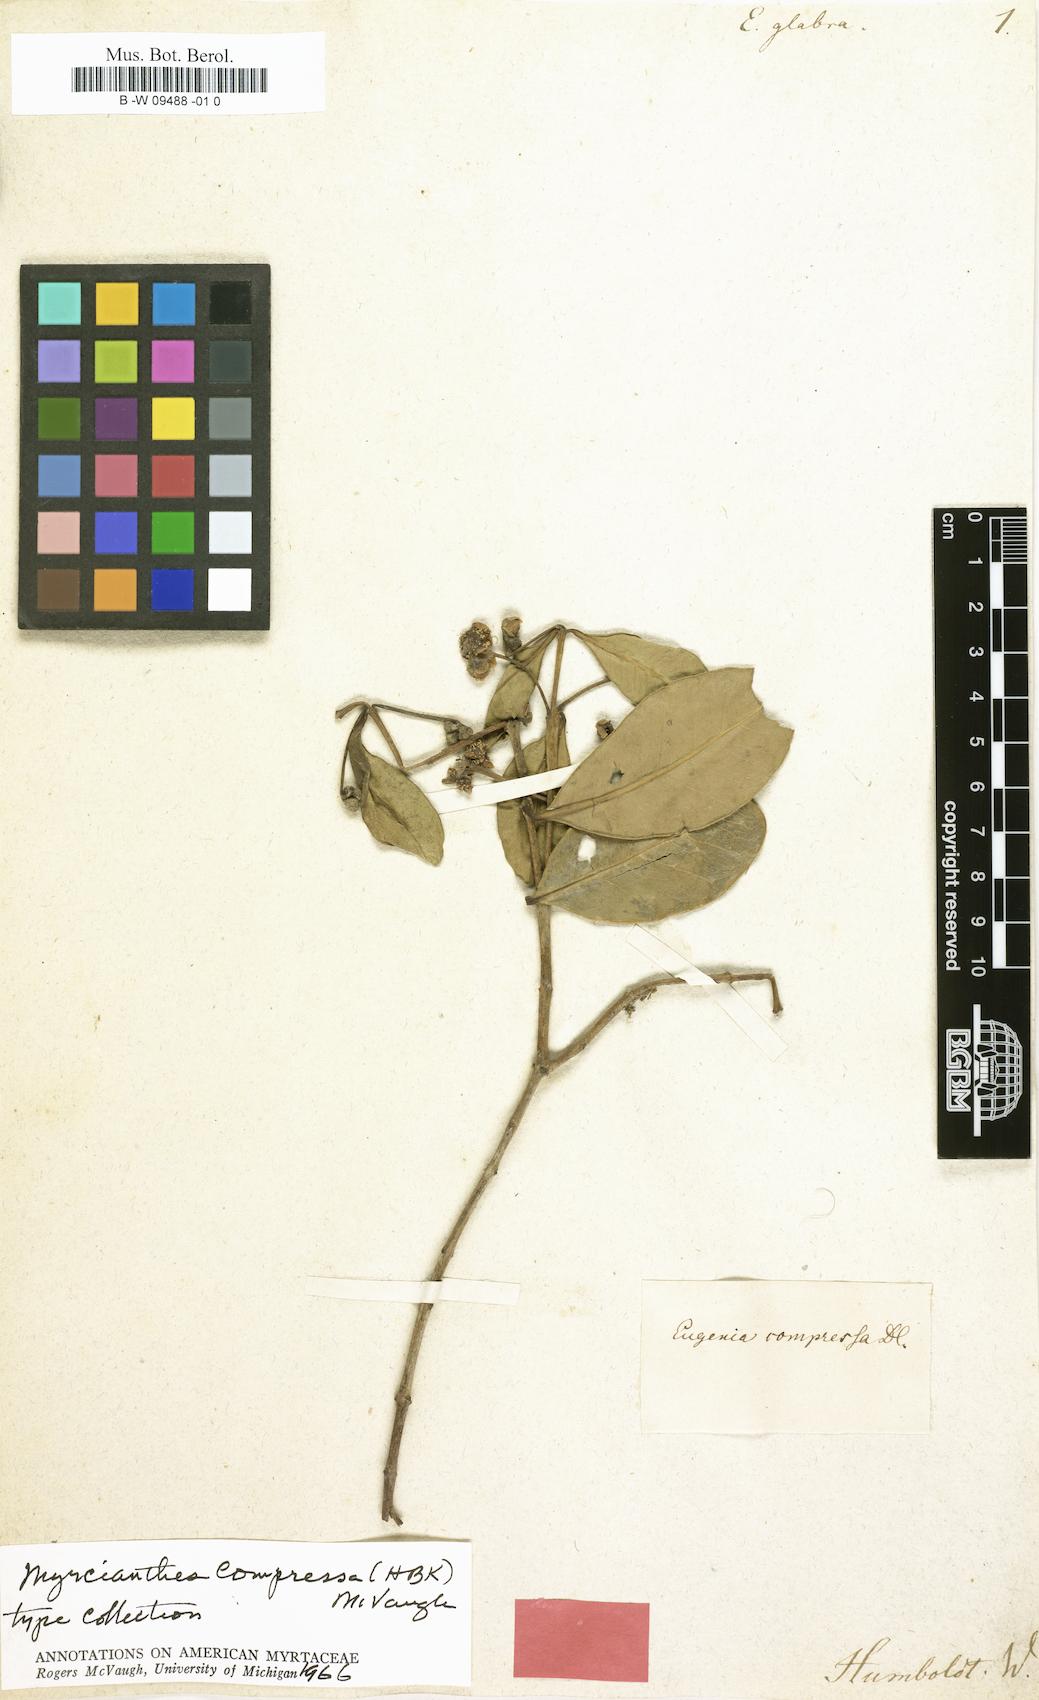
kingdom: Plantae
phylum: Tracheophyta
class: Magnoliopsida
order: Myrtales
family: Myrtaceae
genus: Eugenia
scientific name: Eugenia glabrata
